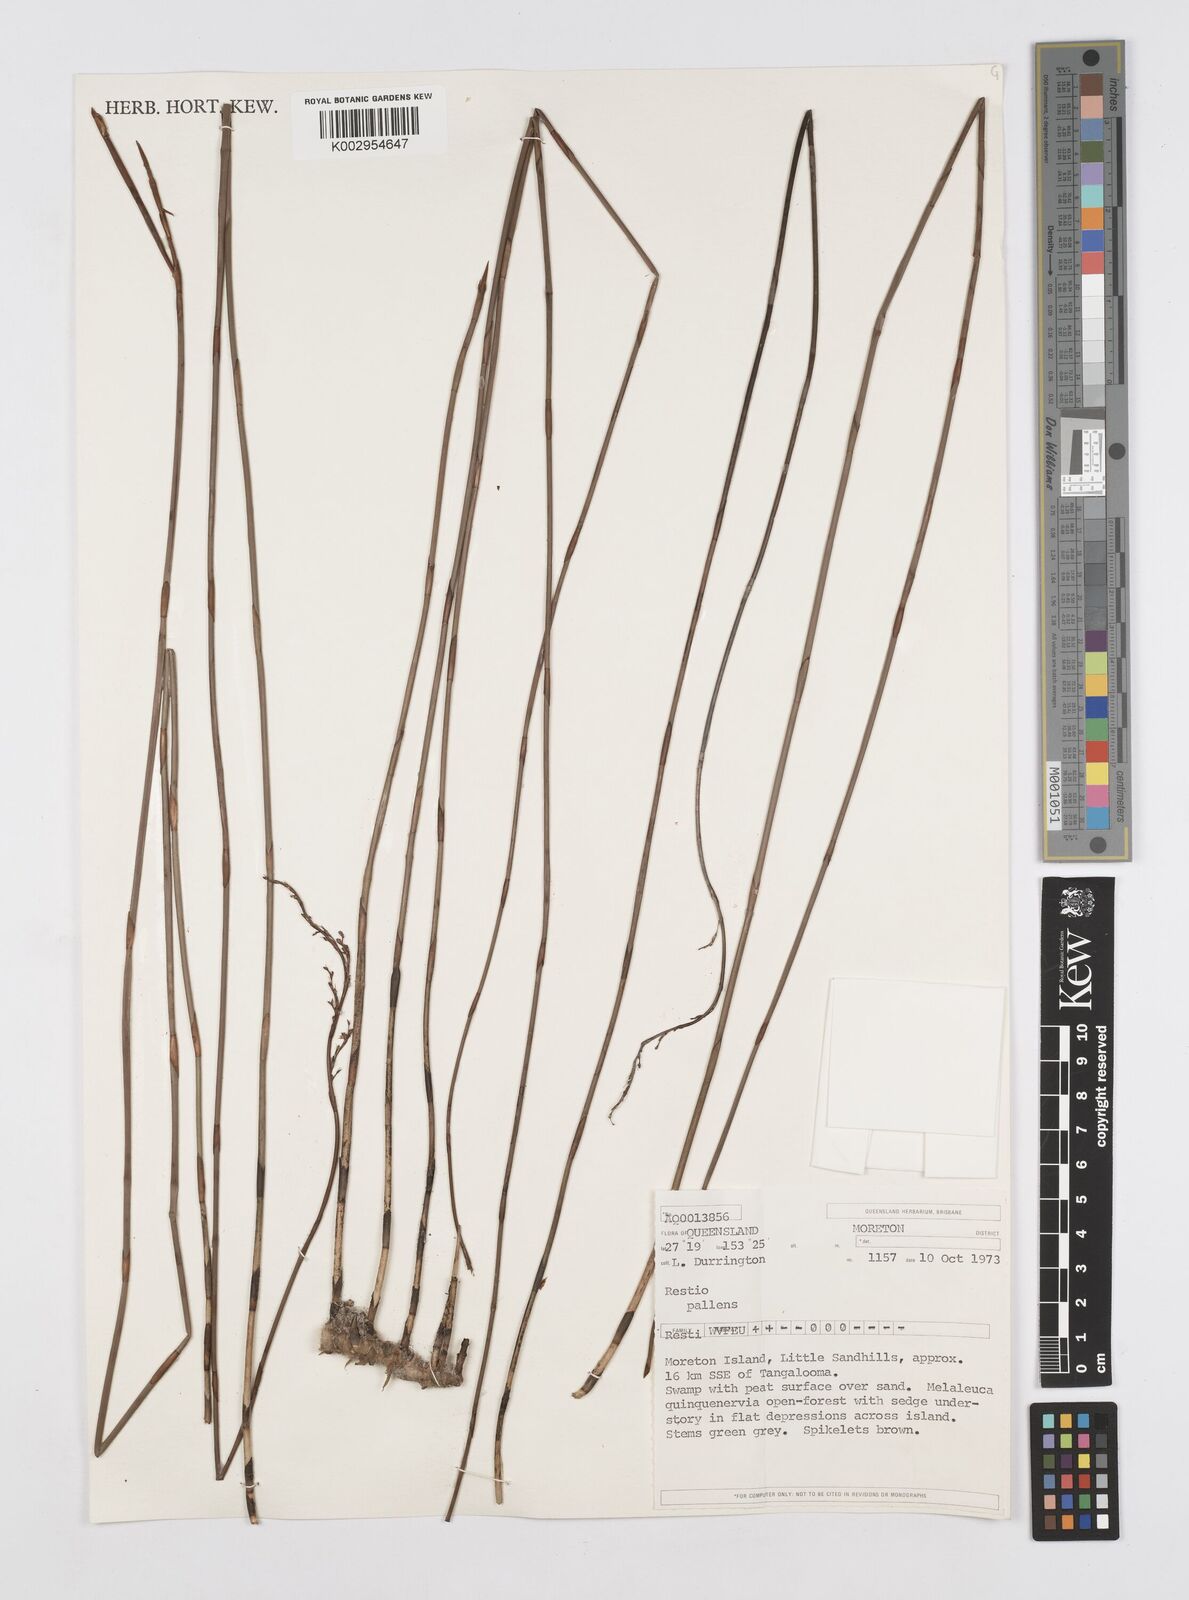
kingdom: Plantae
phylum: Tracheophyta
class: Liliopsida
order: Poales
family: Restionaceae
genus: Baloskion
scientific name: Baloskion pallens
